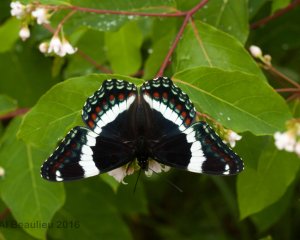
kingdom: Animalia
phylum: Arthropoda
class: Insecta
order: Lepidoptera
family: Nymphalidae
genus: Limenitis
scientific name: Limenitis arthemis
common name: Red-spotted Admiral
